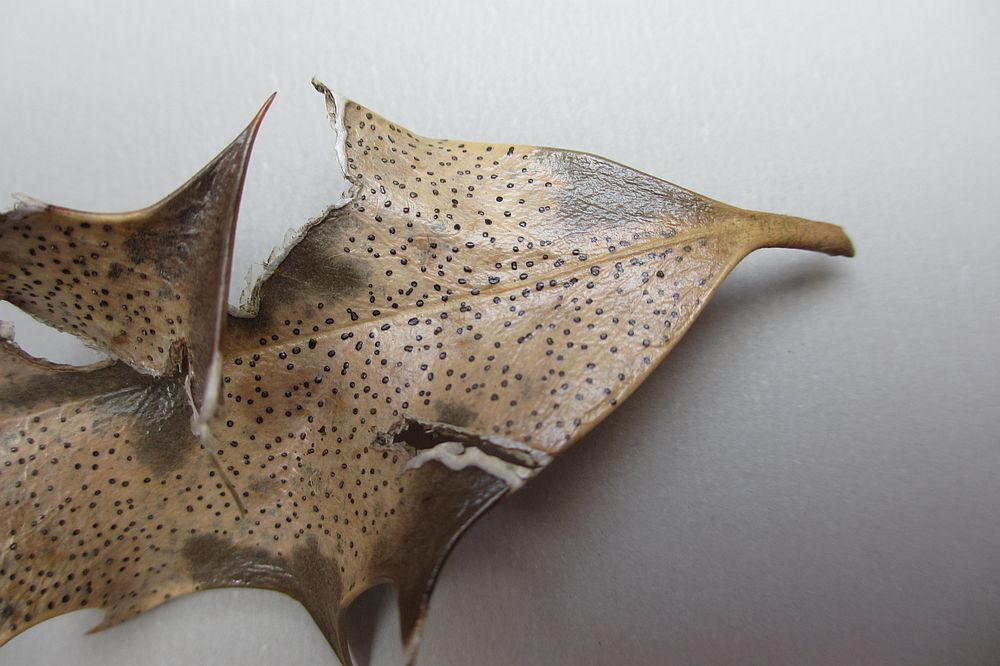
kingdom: Fungi
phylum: Ascomycota
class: Leotiomycetes
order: Helotiales
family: Cenangiaceae
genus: Trochila
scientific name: Trochila ilicina
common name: kristtorn-lågskive
